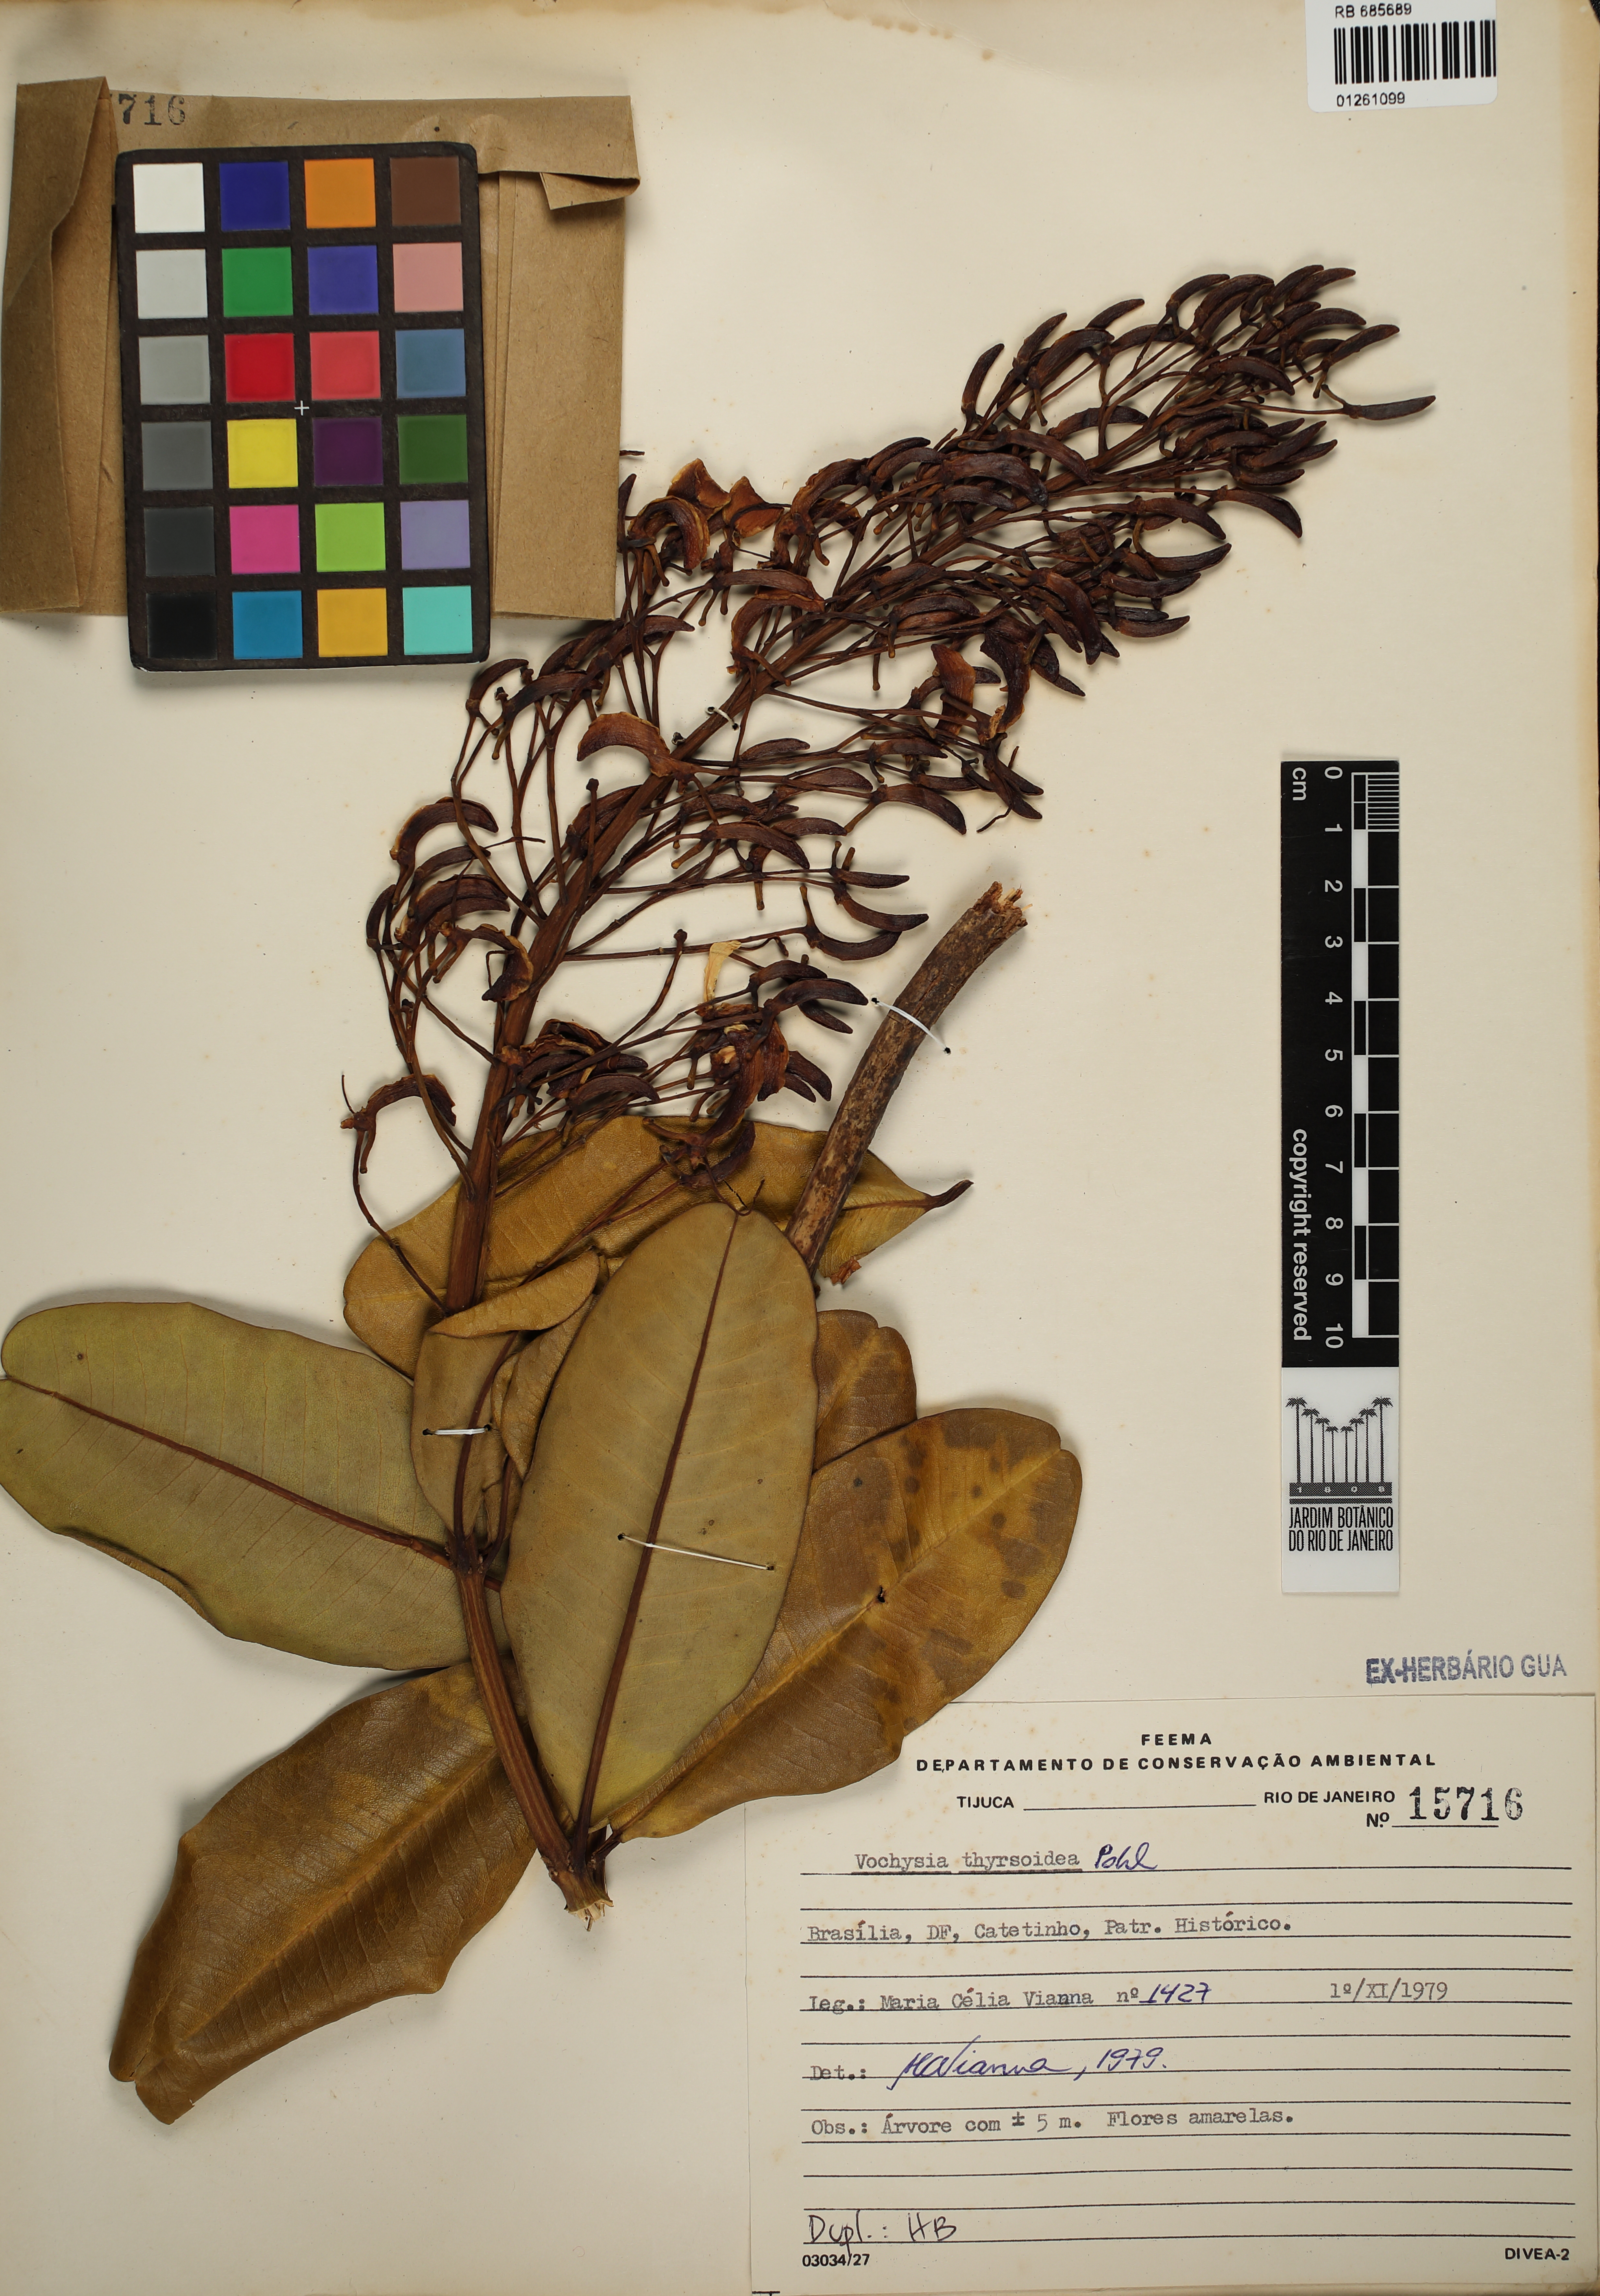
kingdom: Plantae
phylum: Tracheophyta
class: Magnoliopsida
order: Myrtales
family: Vochysiaceae
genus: Vochysia
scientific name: Vochysia thyrsoidea
